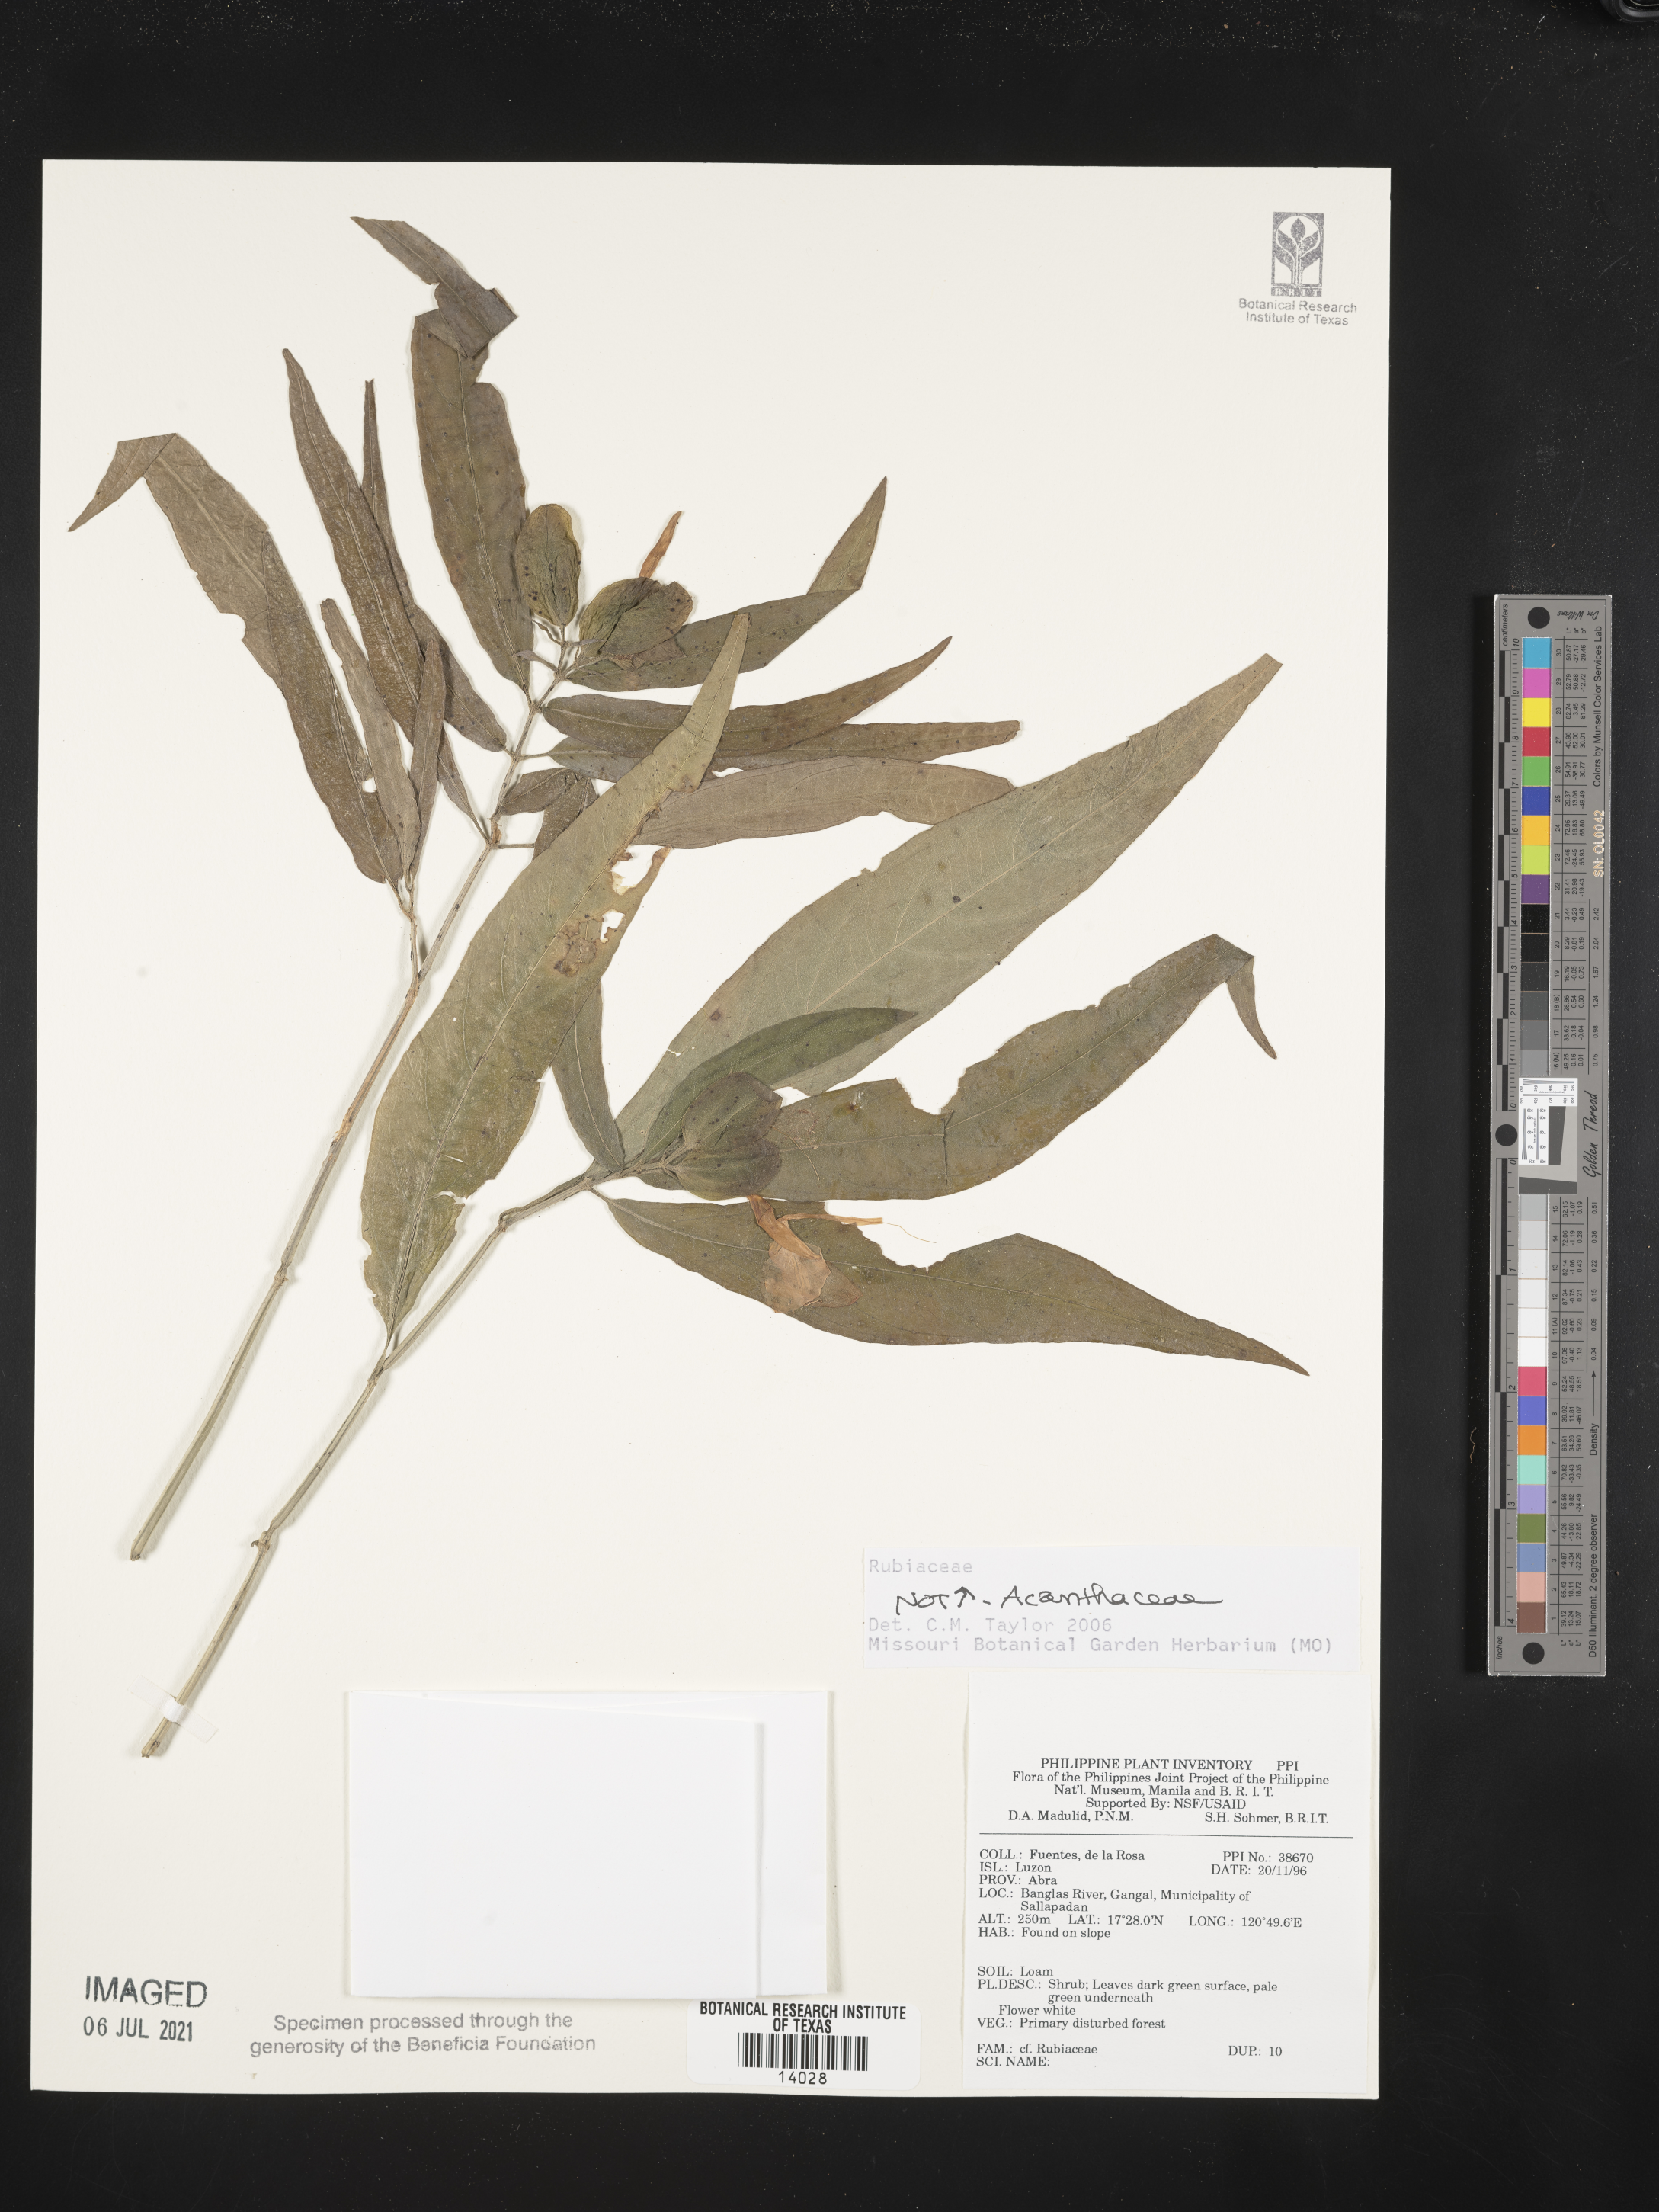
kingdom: Plantae
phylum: Tracheophyta
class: Magnoliopsida
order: Lamiales
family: Acanthaceae
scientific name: Acanthaceae
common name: Acanthaceae
